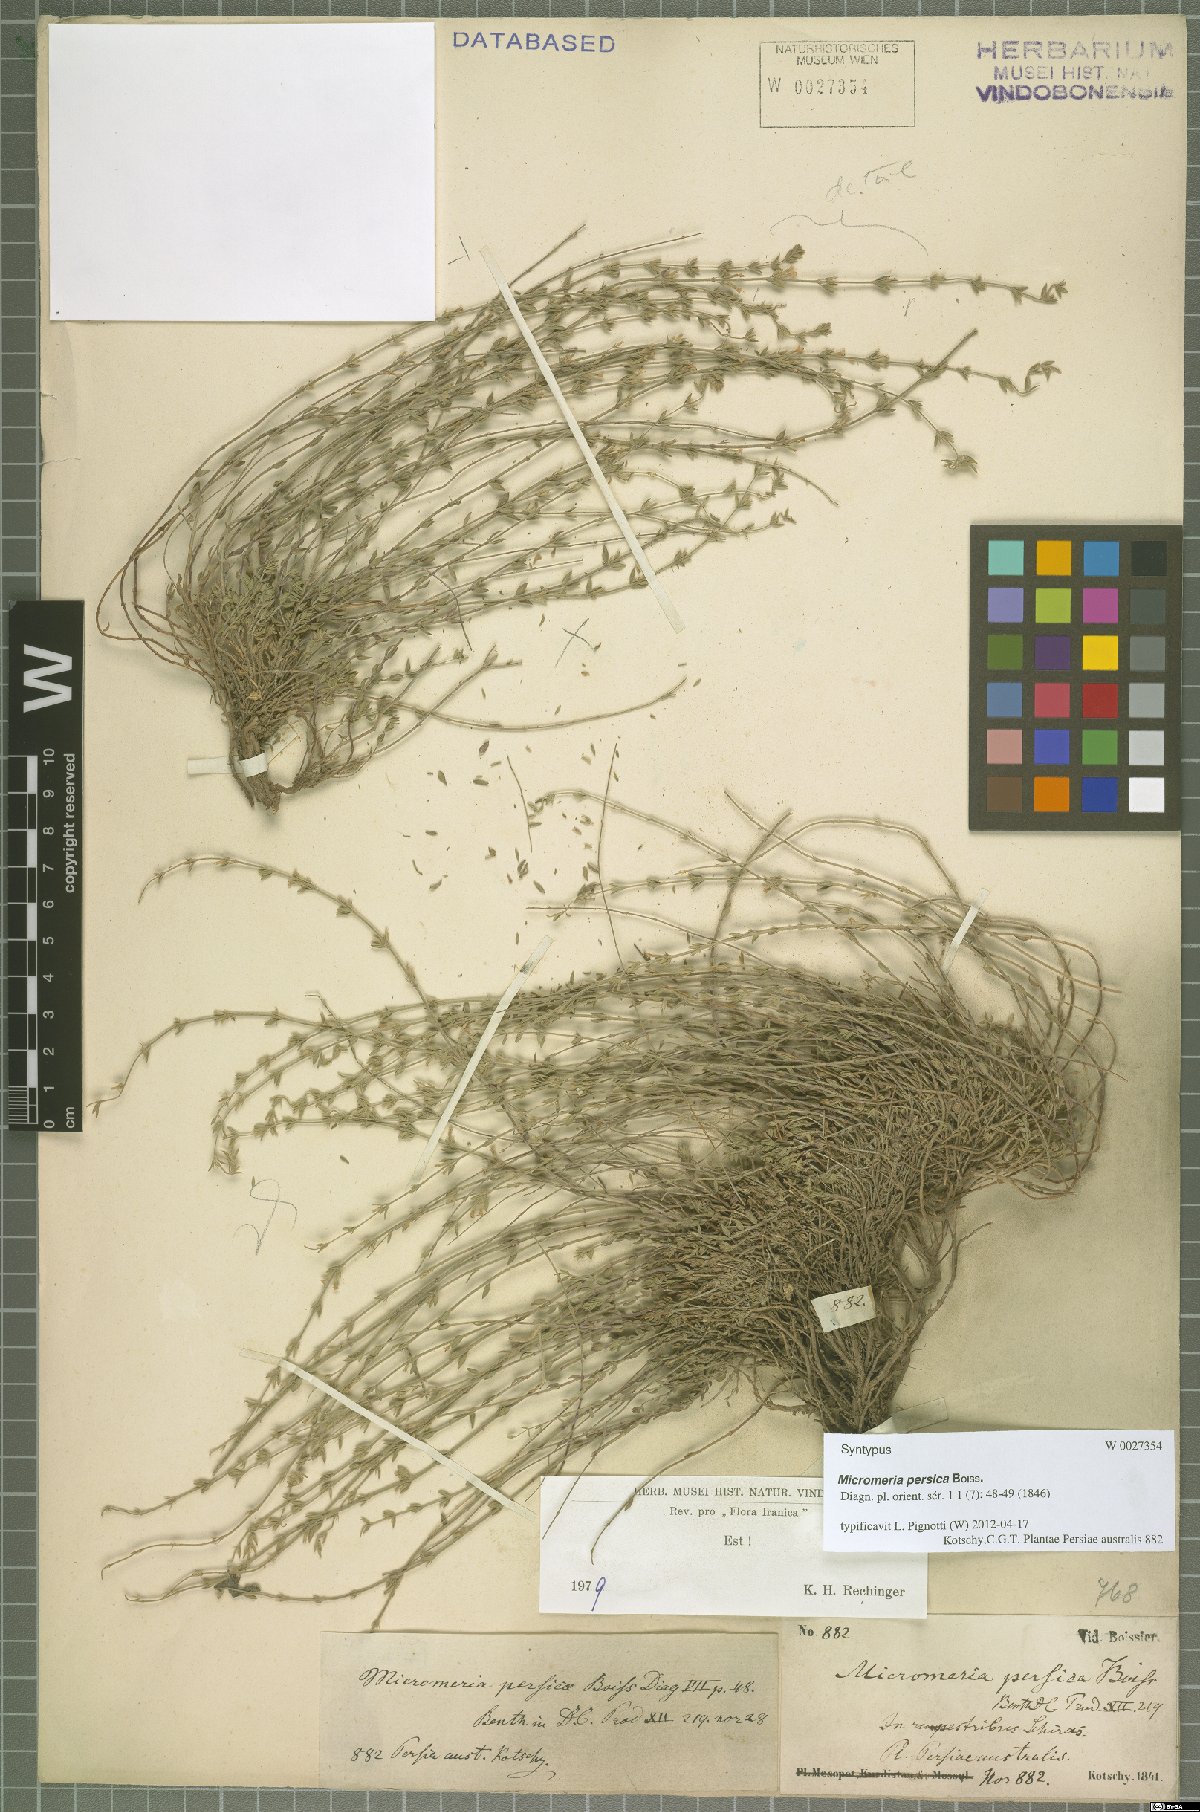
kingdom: Plantae
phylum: Tracheophyta
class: Magnoliopsida
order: Lamiales
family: Lamiaceae
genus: Micromeria
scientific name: Micromeria persica
